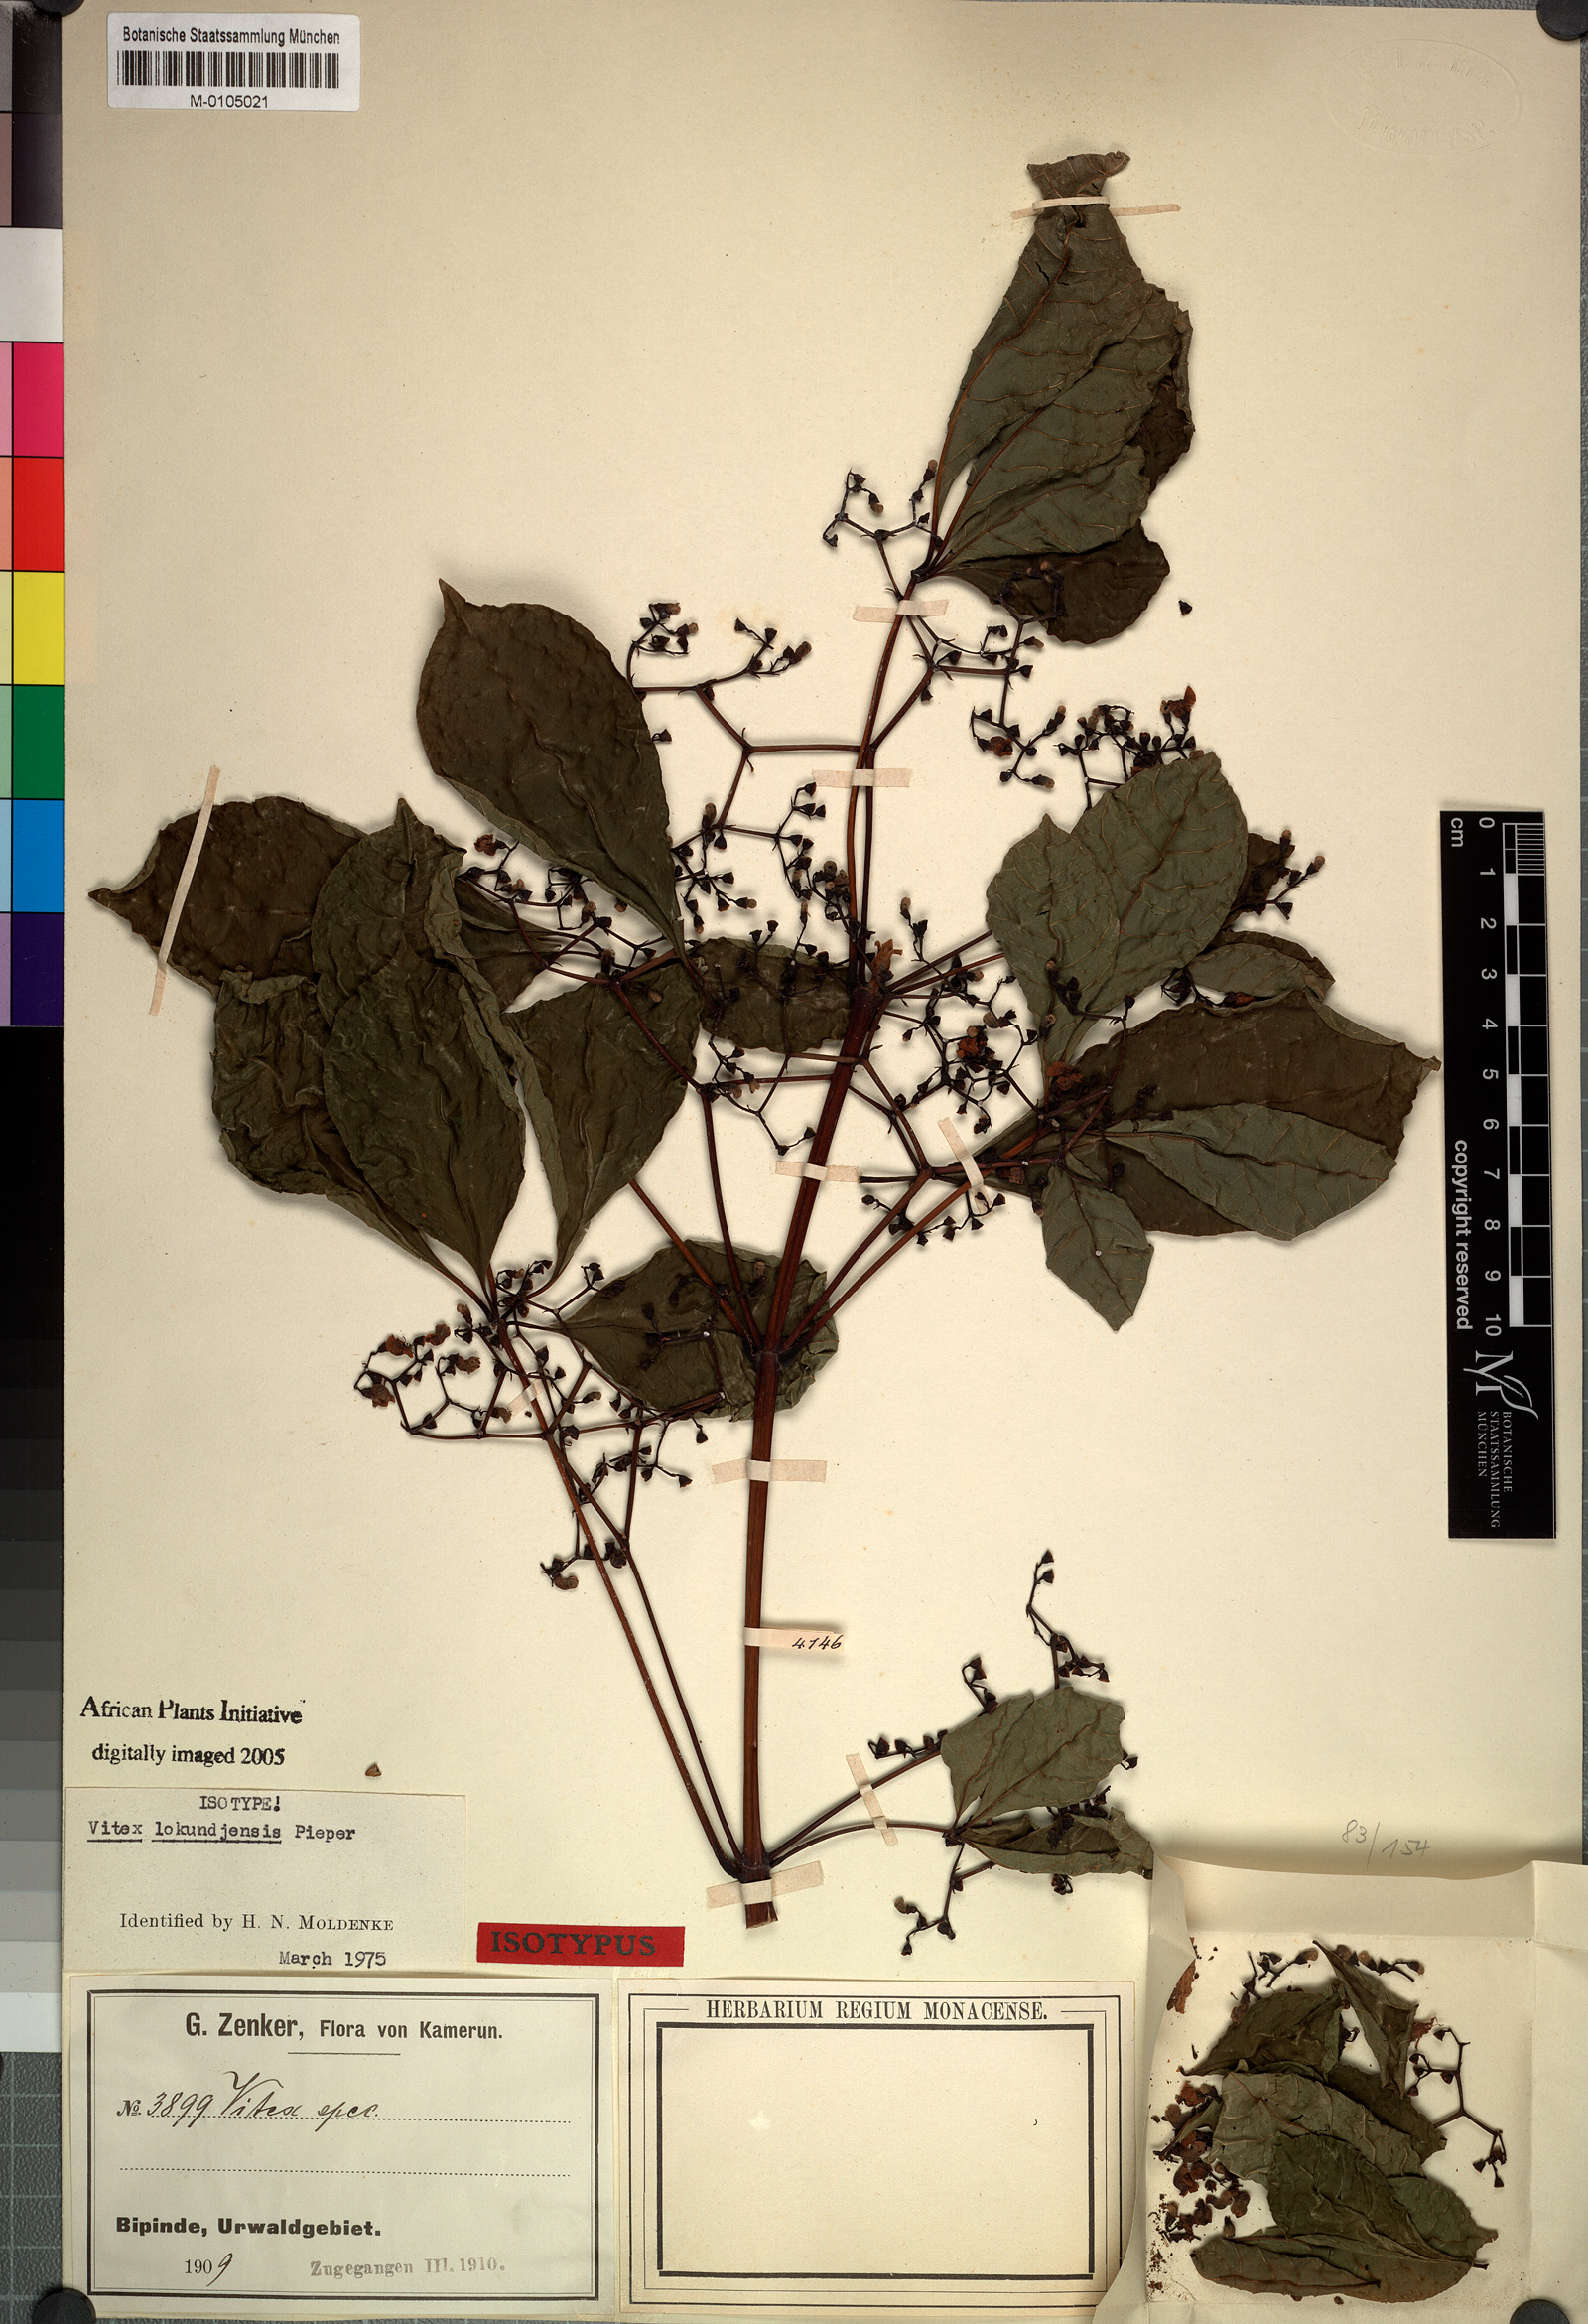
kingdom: Plantae
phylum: Tracheophyta
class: Magnoliopsida
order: Lamiales
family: Lamiaceae
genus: Vitex
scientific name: Vitex lokundjensis
